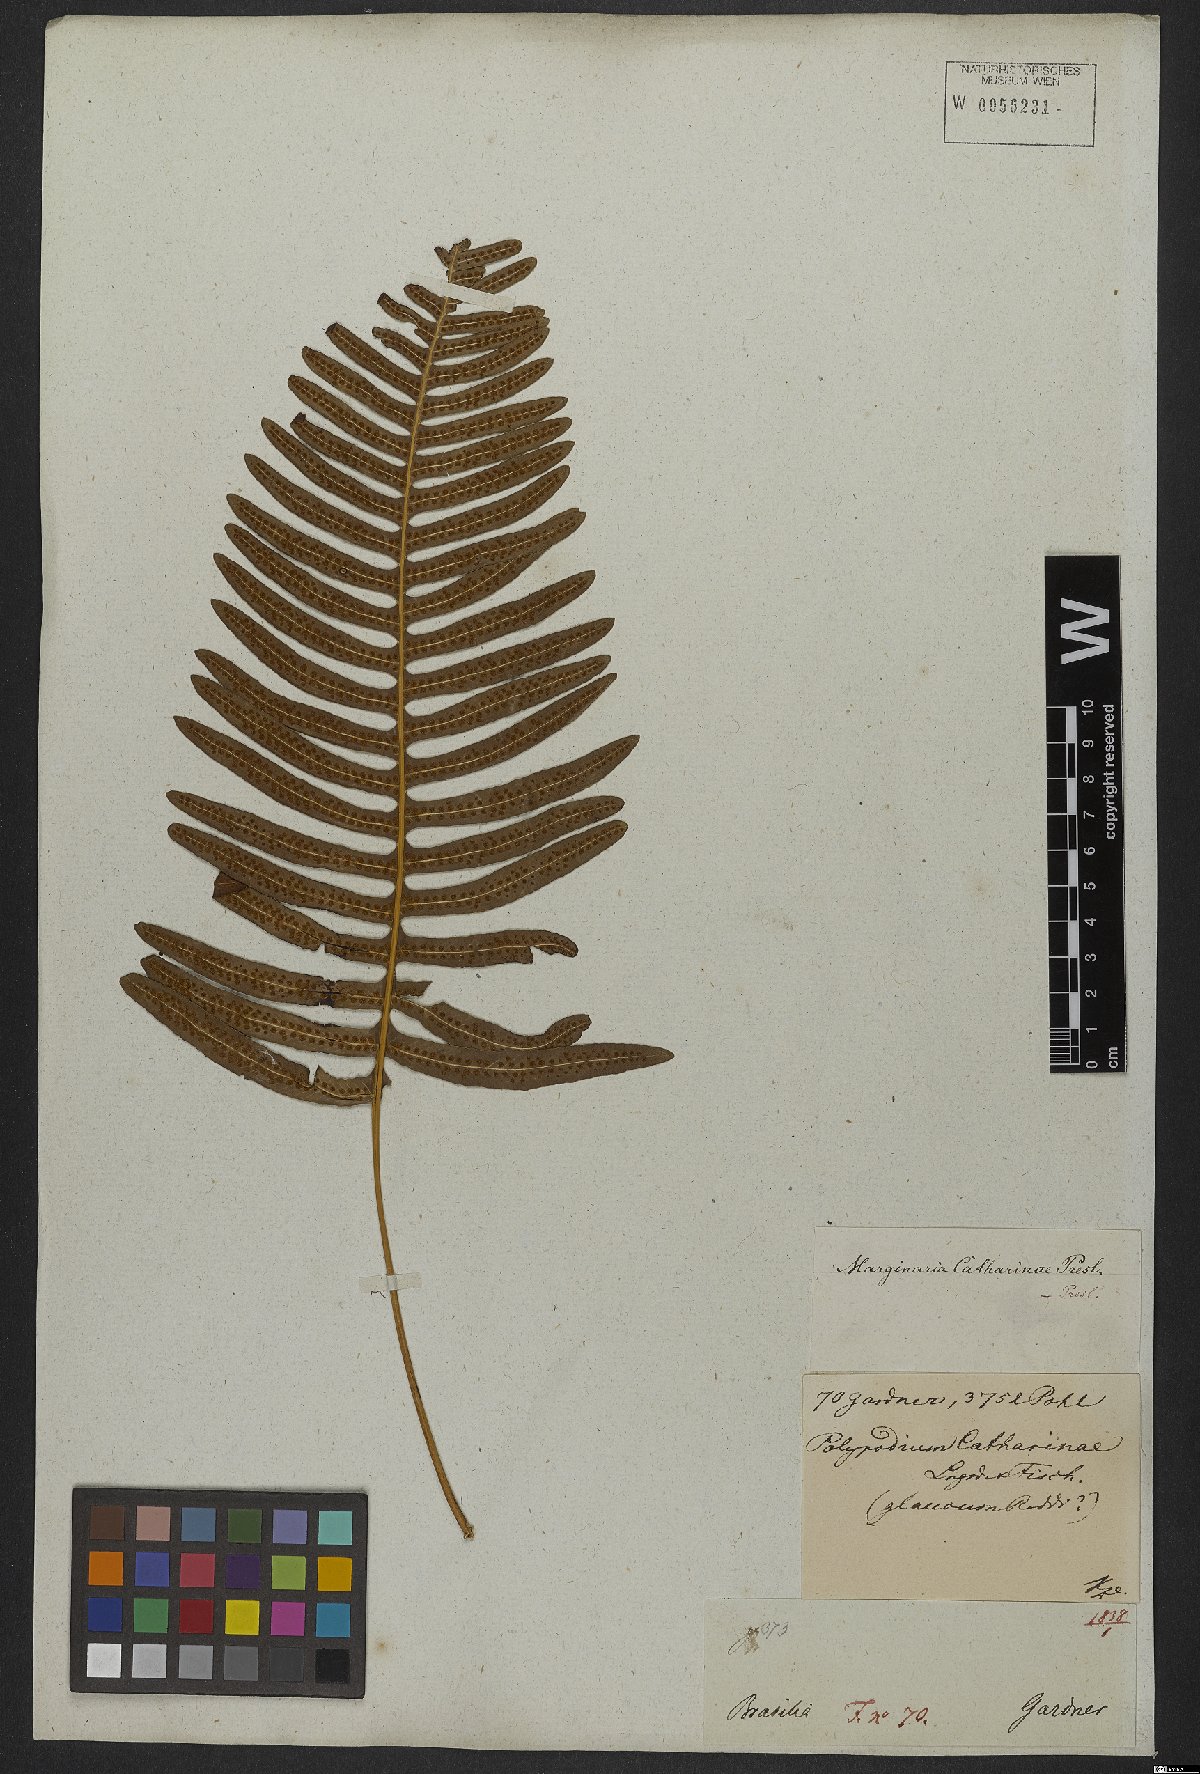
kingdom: Plantae
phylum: Tracheophyta
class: Polypodiopsida
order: Polypodiales
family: Polypodiaceae
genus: Serpocaulon
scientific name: Serpocaulon catharinae
